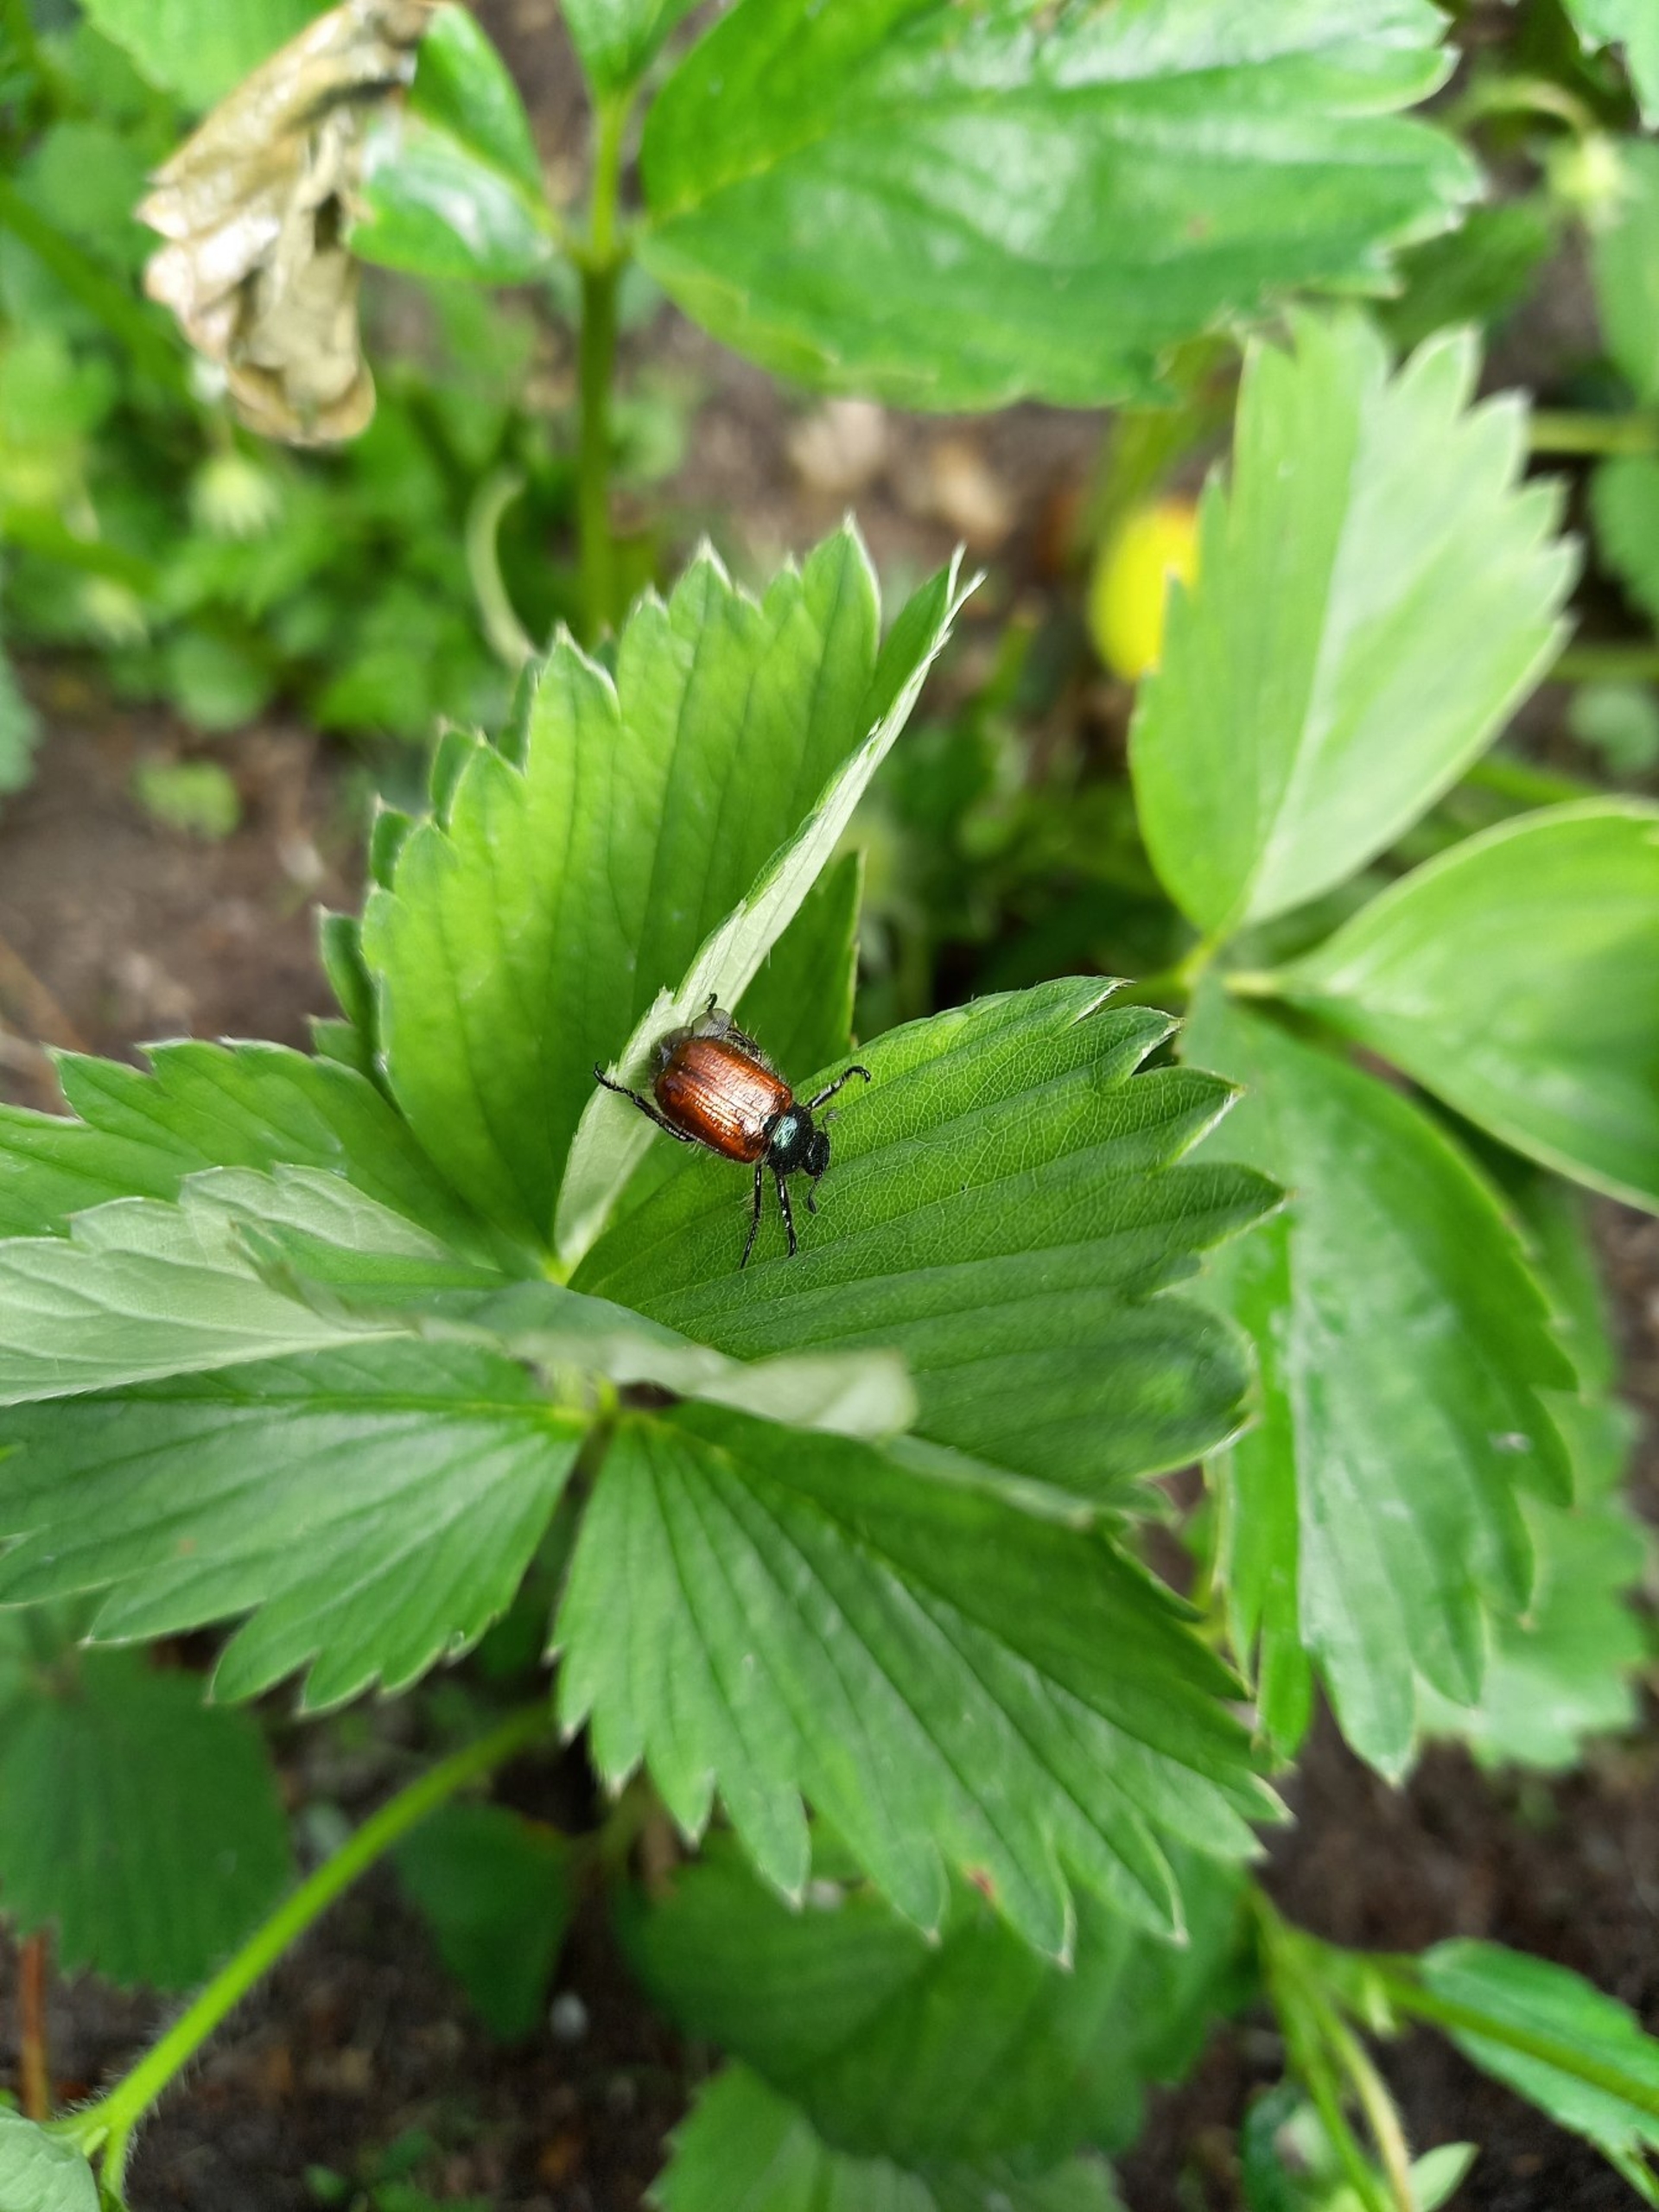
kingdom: Animalia
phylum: Arthropoda
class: Insecta
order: Coleoptera
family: Scarabaeidae
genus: Phyllopertha
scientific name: Phyllopertha horticola
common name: Gåsebille
